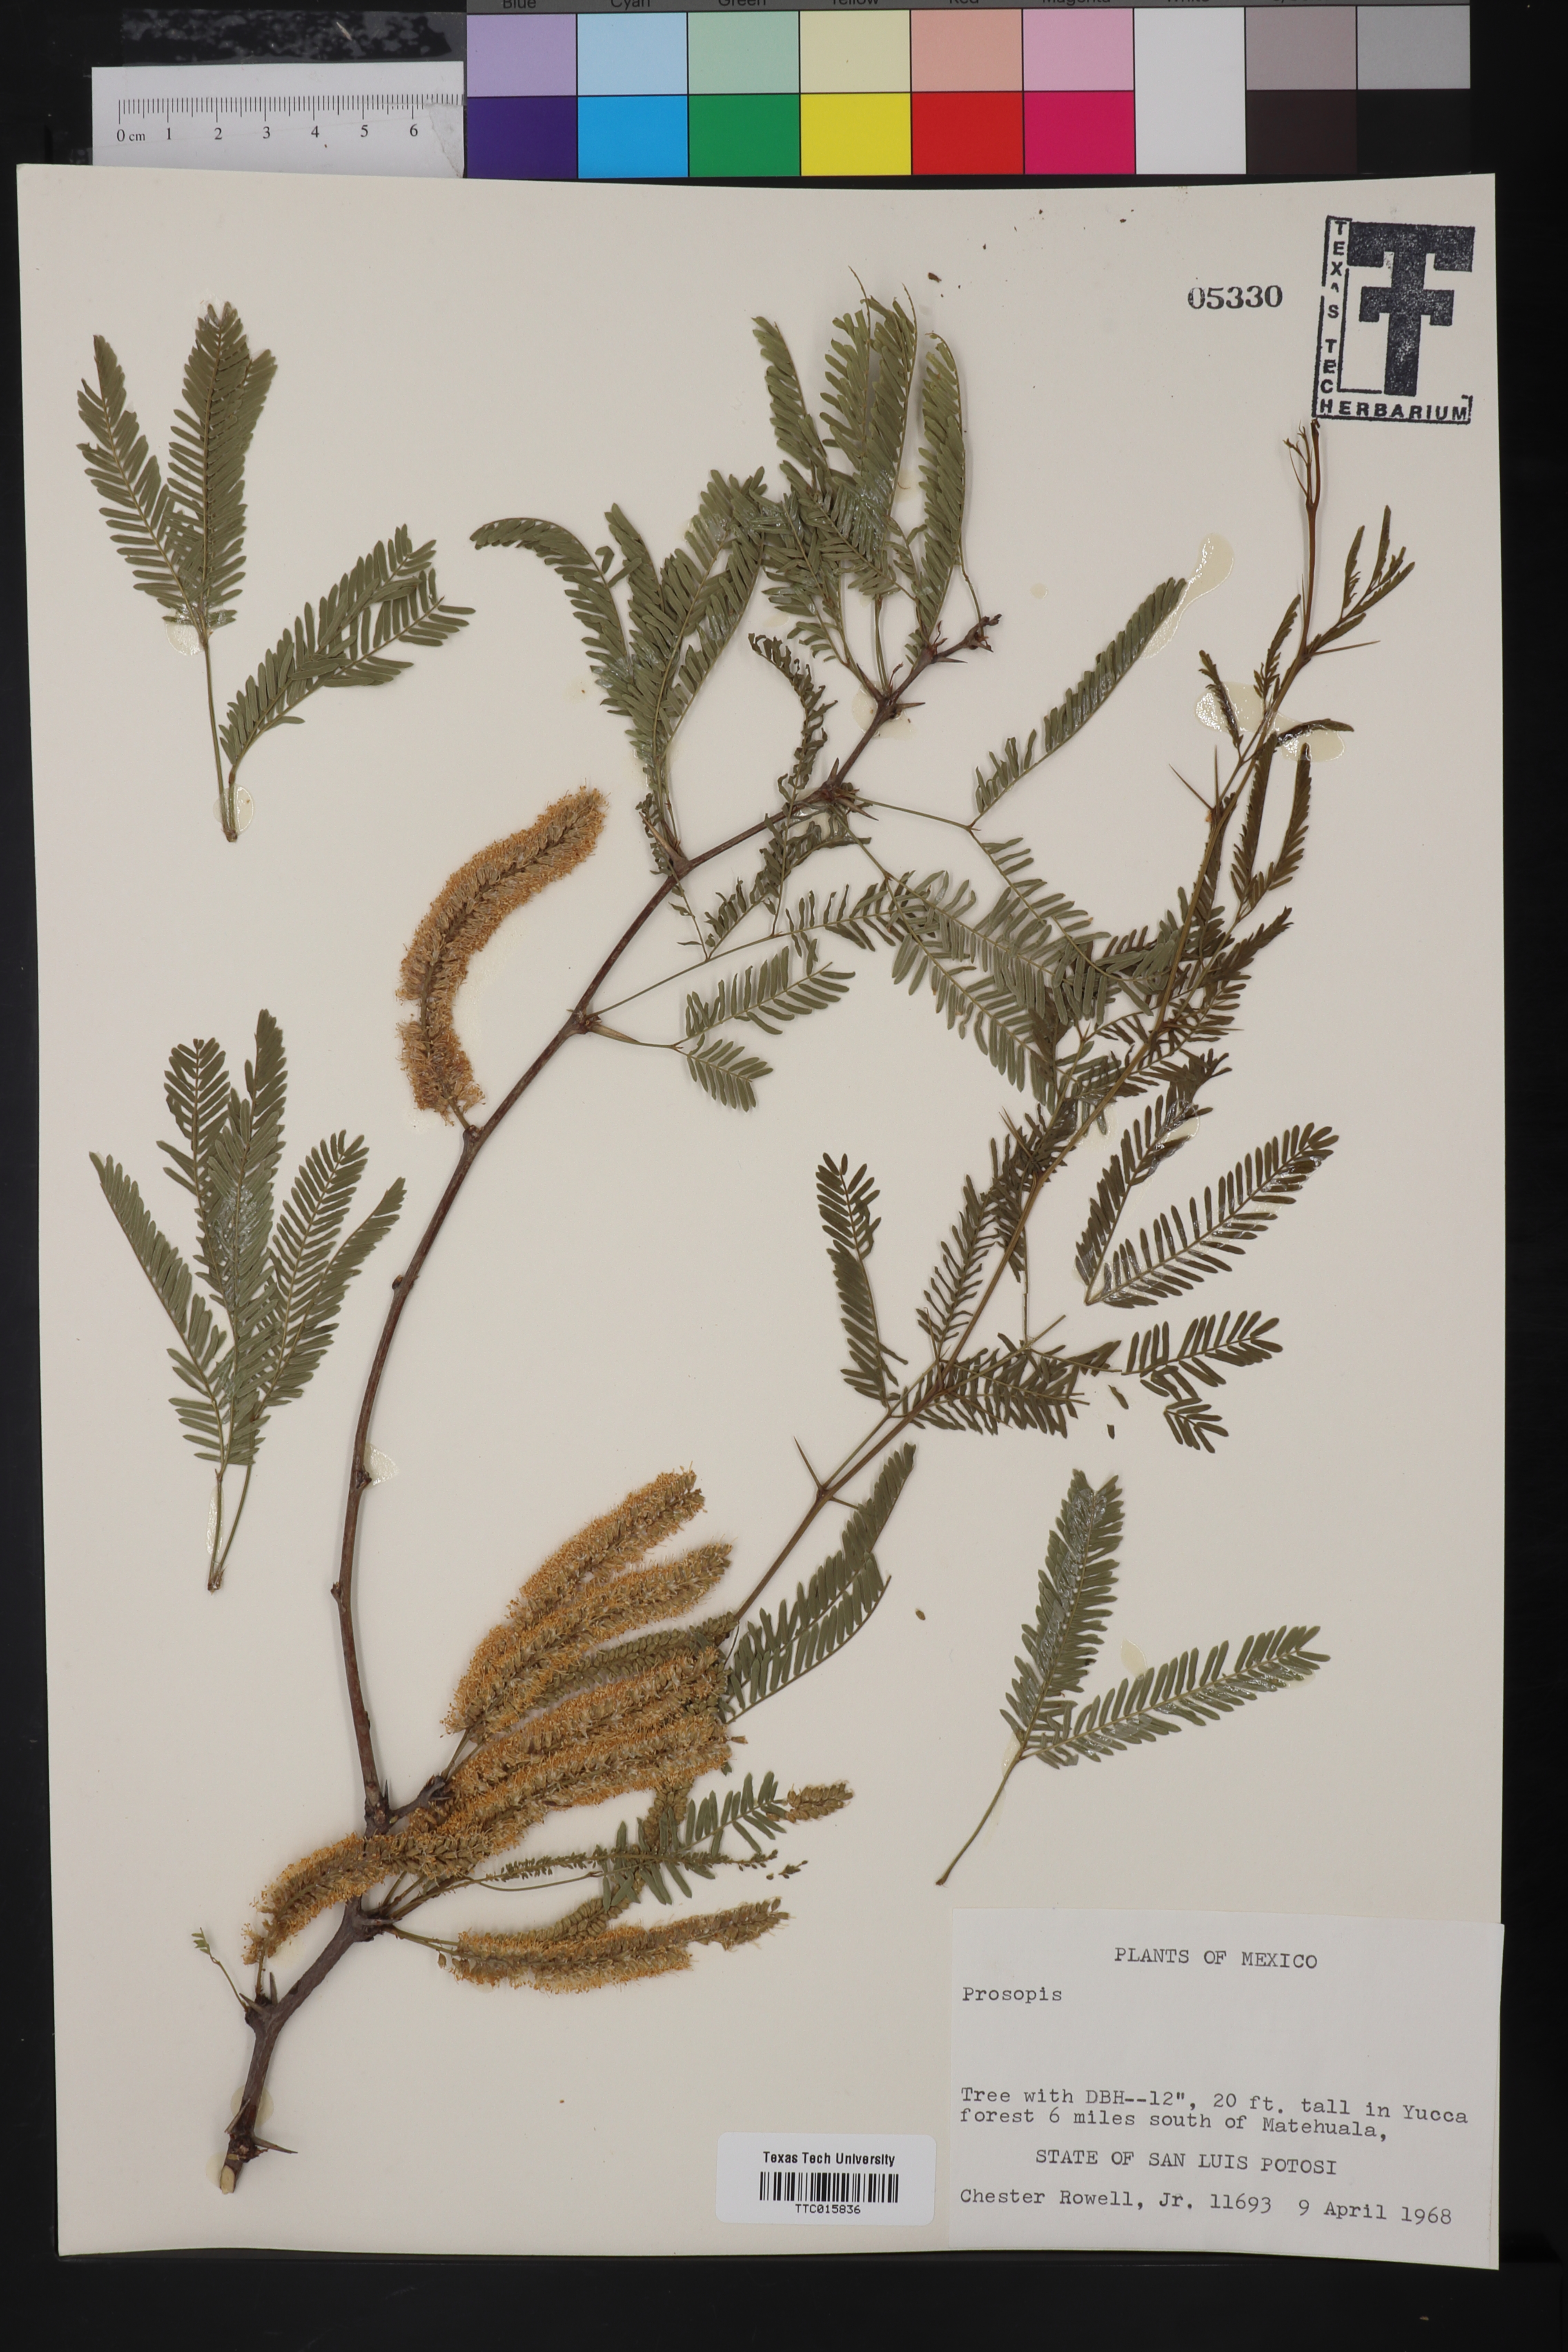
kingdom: Plantae
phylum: Tracheophyta
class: Magnoliopsida
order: Fabales
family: Fabaceae
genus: Prosopis
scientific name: Prosopis
